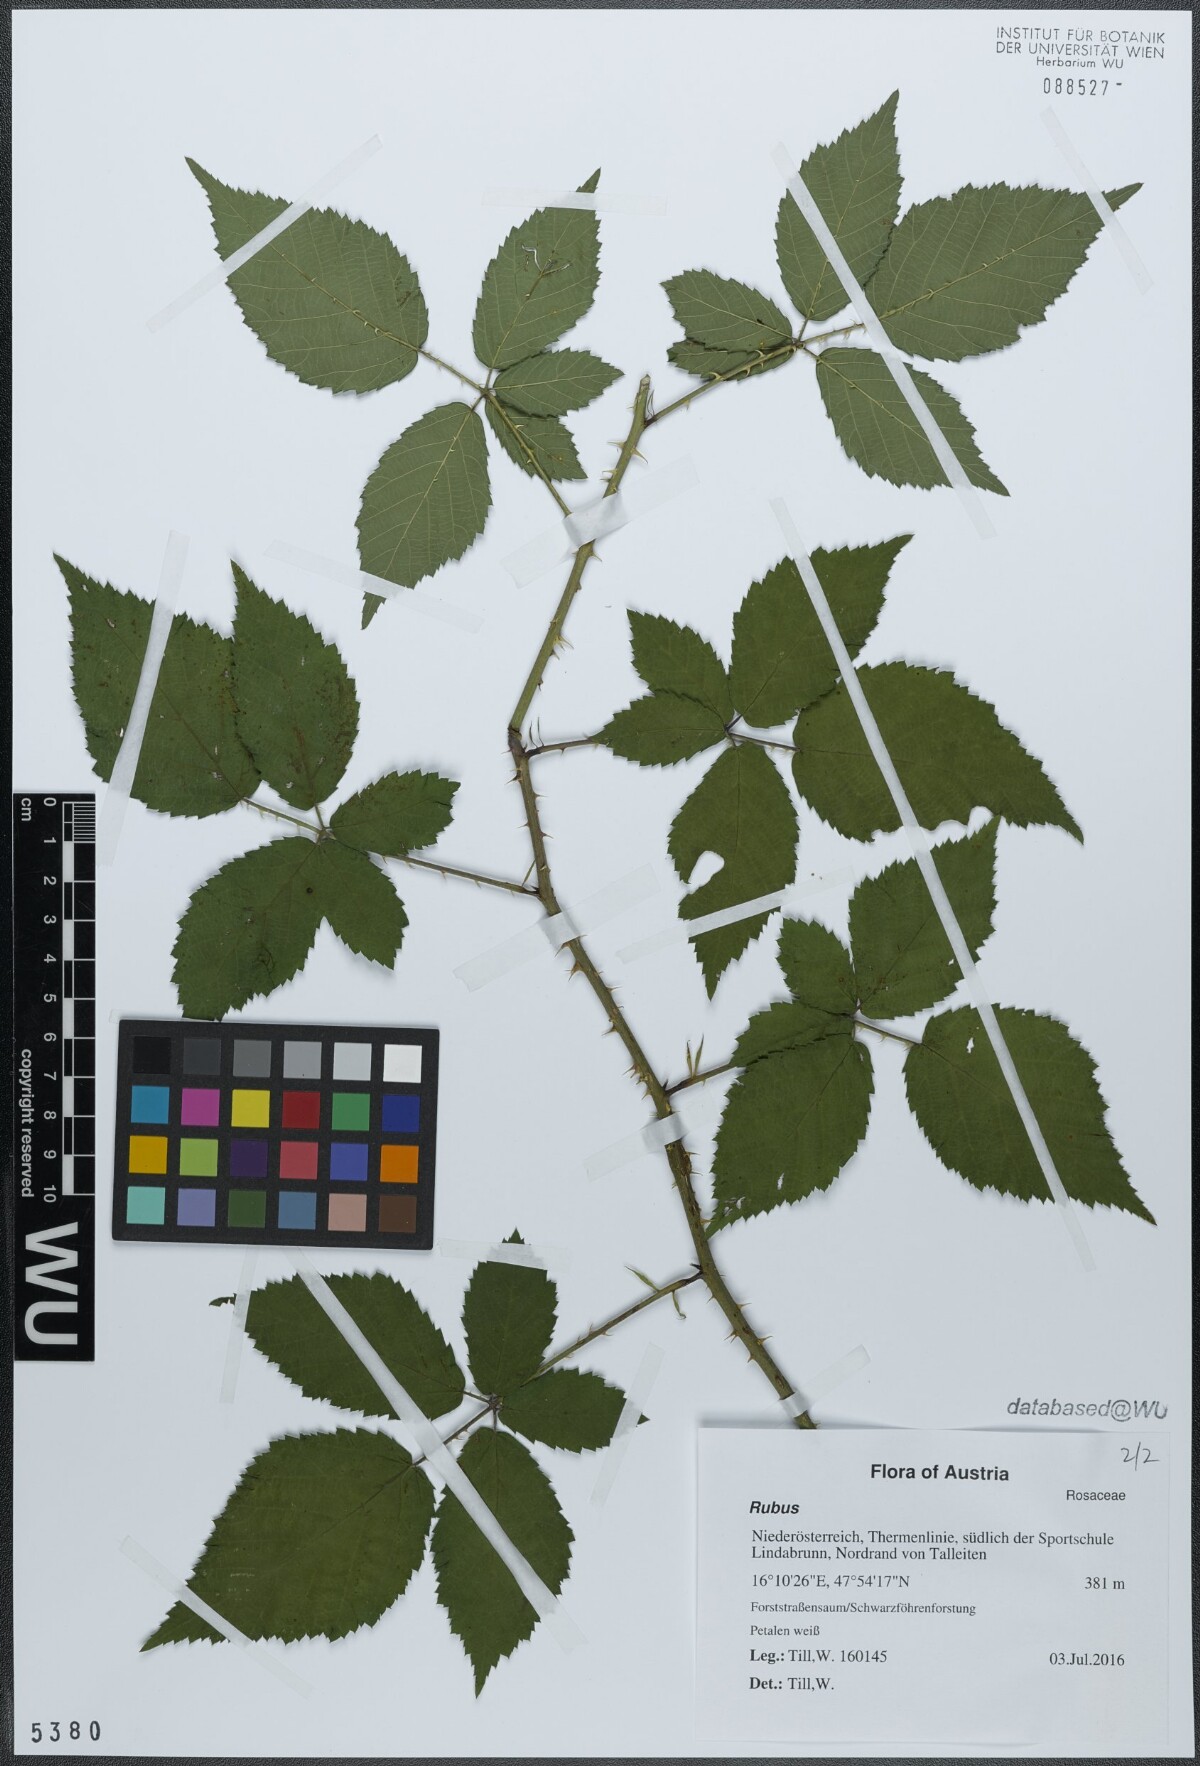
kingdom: Plantae
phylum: Tracheophyta
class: Magnoliopsida
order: Rosales
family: Rosaceae
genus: Rubus
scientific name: Rubus
